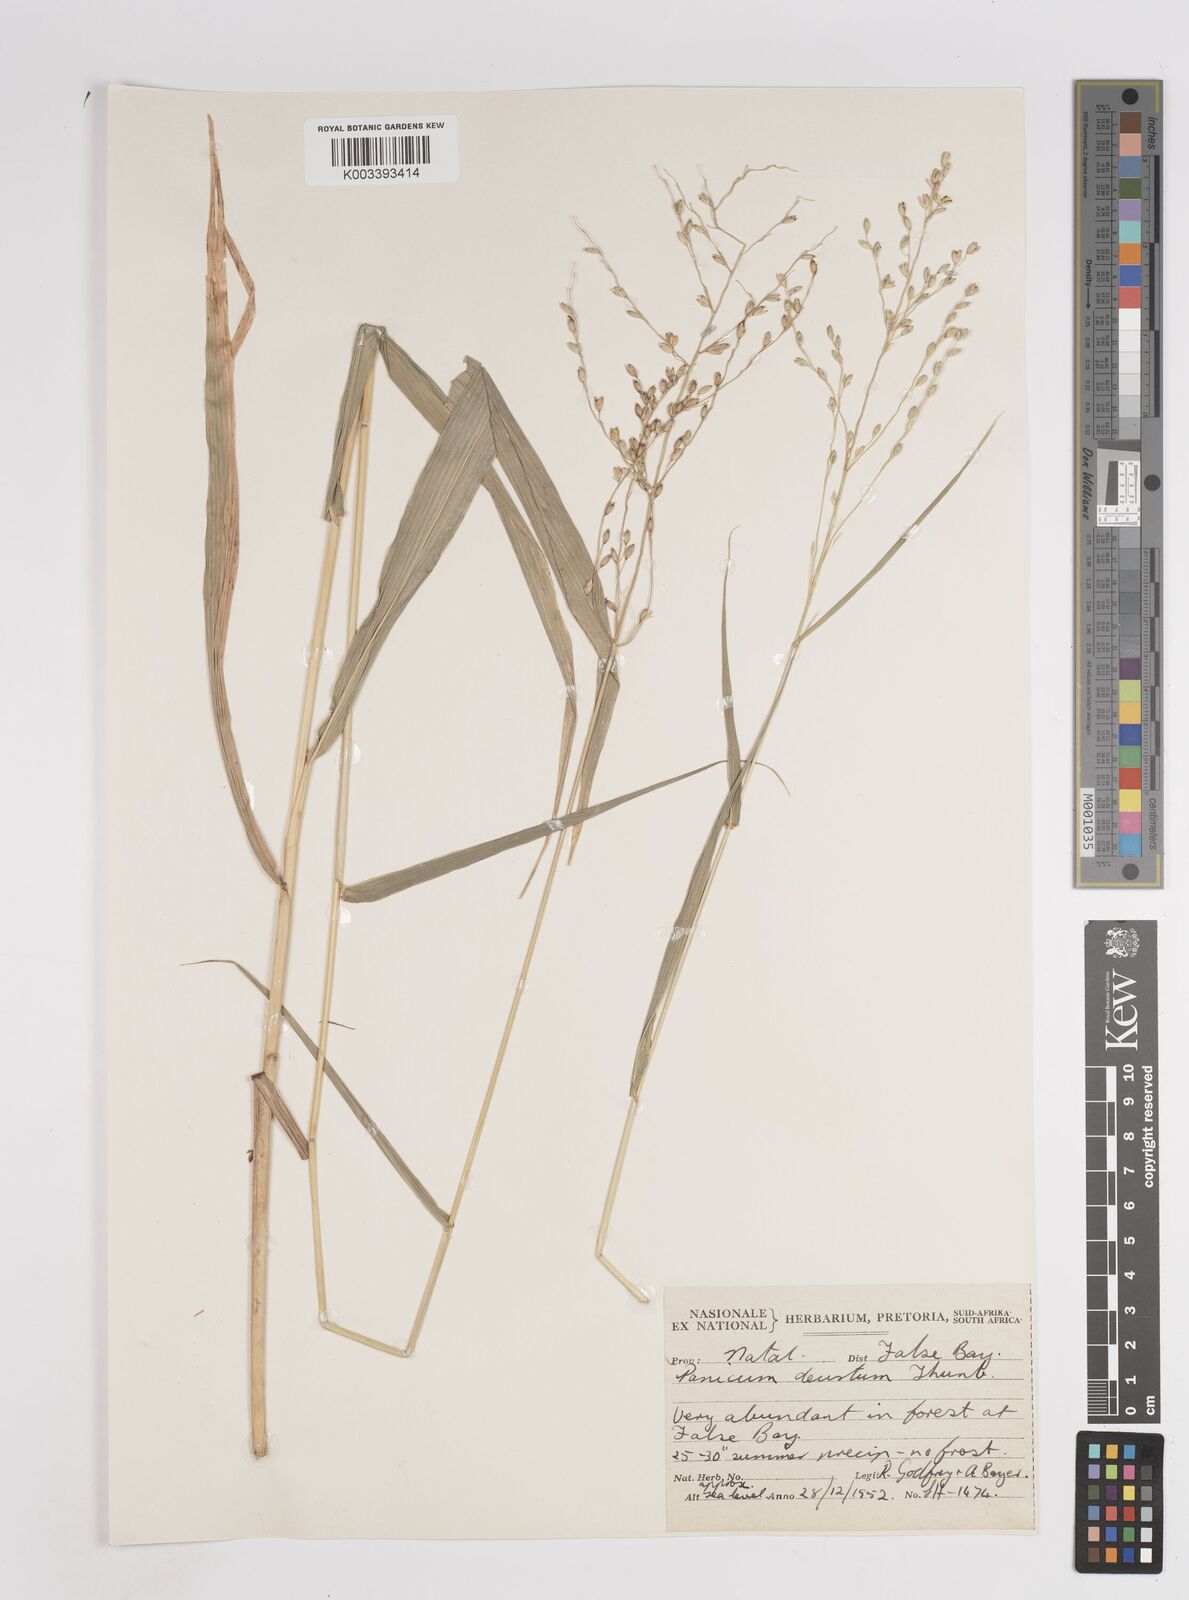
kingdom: Plantae
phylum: Tracheophyta
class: Liliopsida
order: Poales
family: Poaceae
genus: Panicum
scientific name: Panicum deustum
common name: Reed panicum
